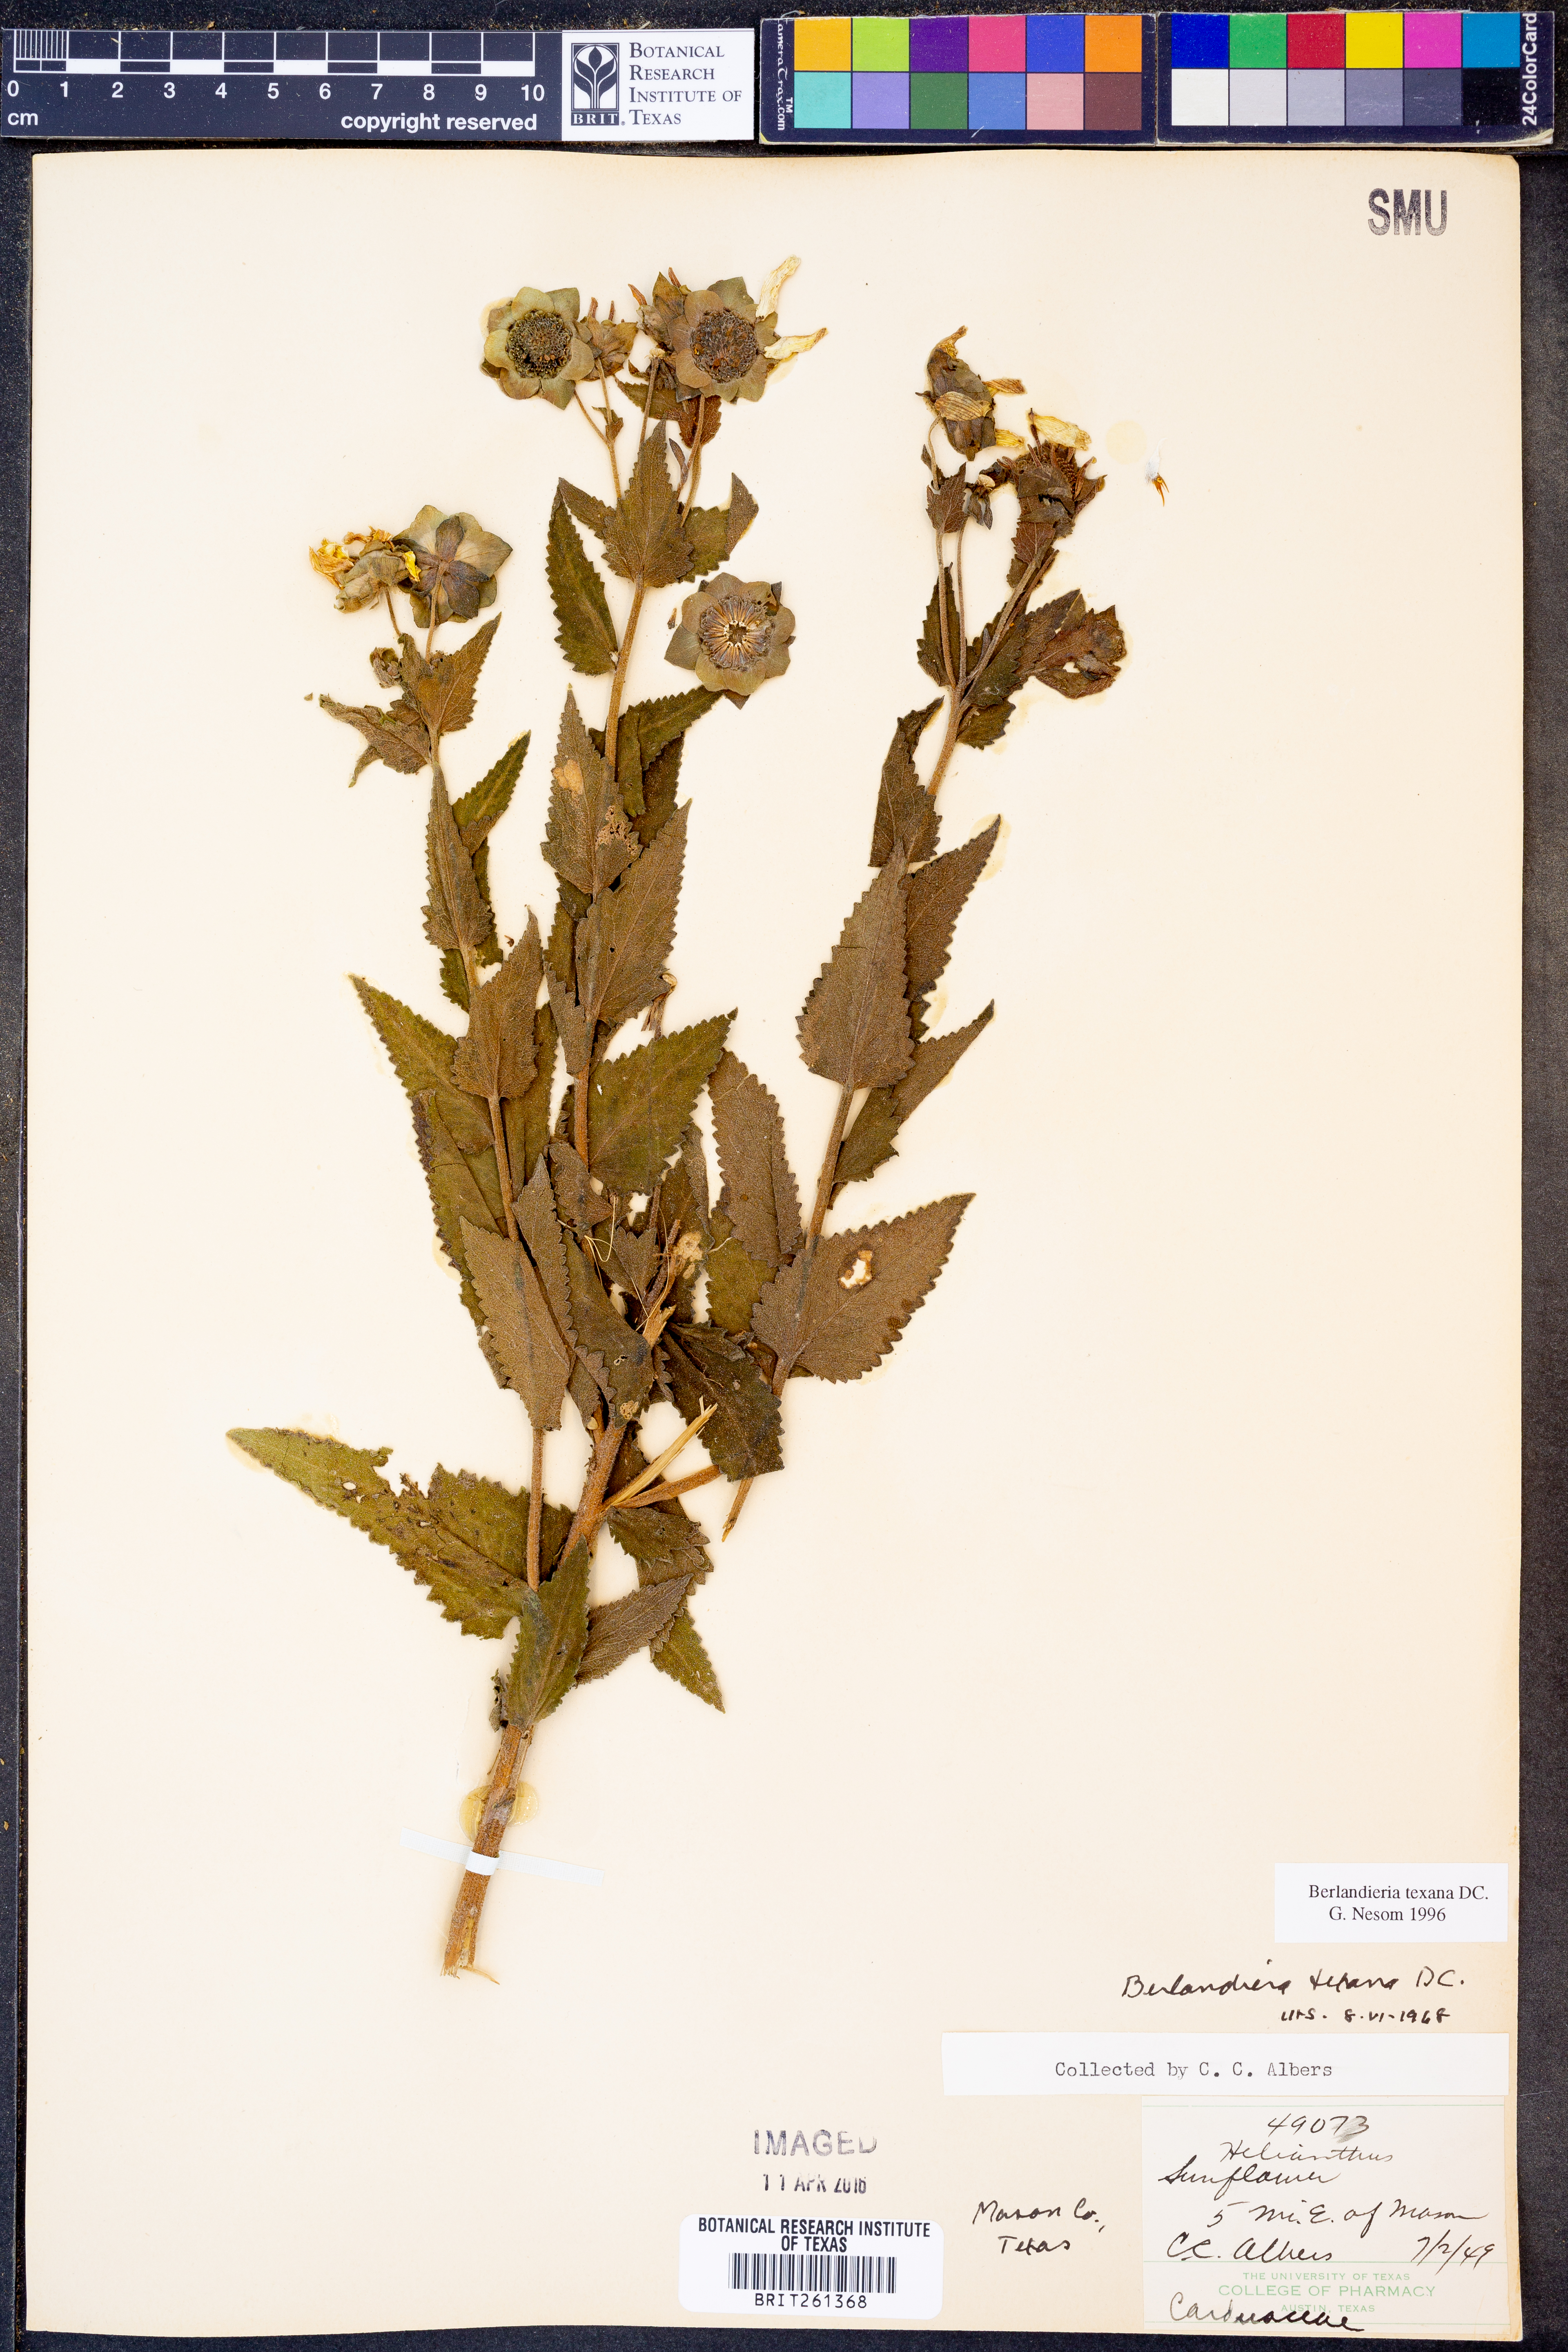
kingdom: Plantae
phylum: Tracheophyta
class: Magnoliopsida
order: Asterales
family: Asteraceae
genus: Berlandiera
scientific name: Berlandiera texana
